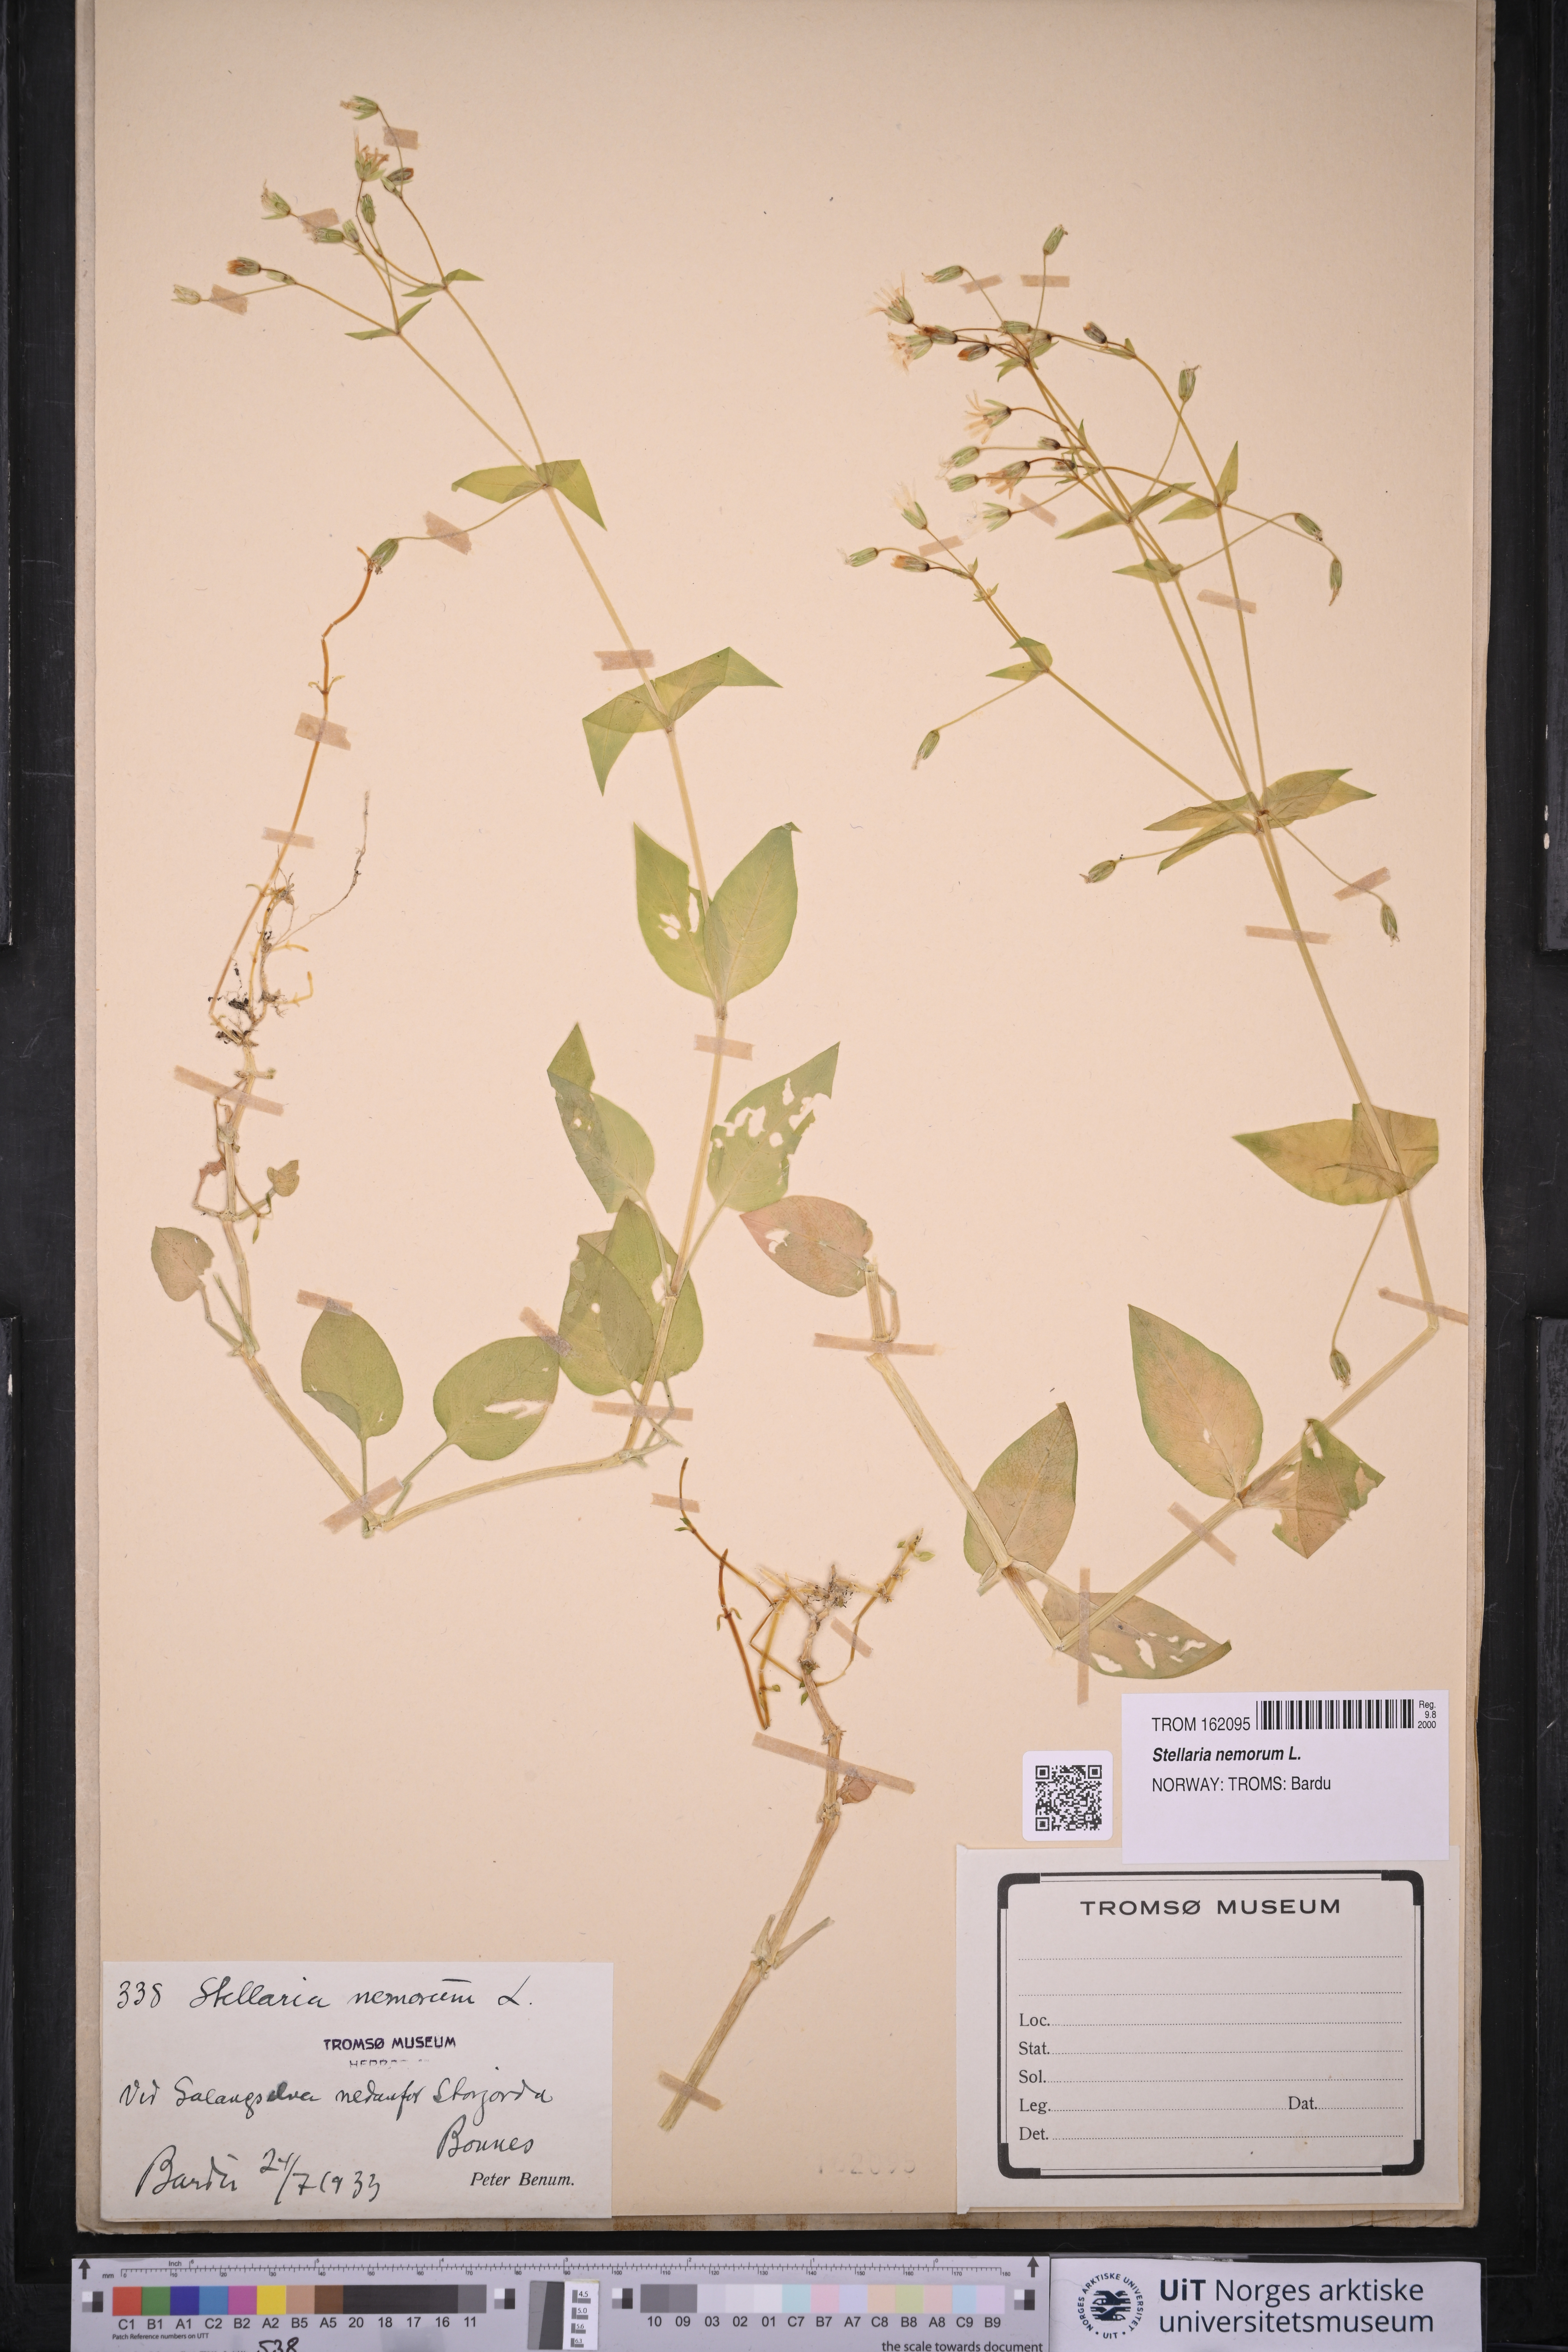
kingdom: Plantae
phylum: Tracheophyta
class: Magnoliopsida
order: Caryophyllales
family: Caryophyllaceae
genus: Stellaria
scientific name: Stellaria nemorum
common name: Wood stitchwort
